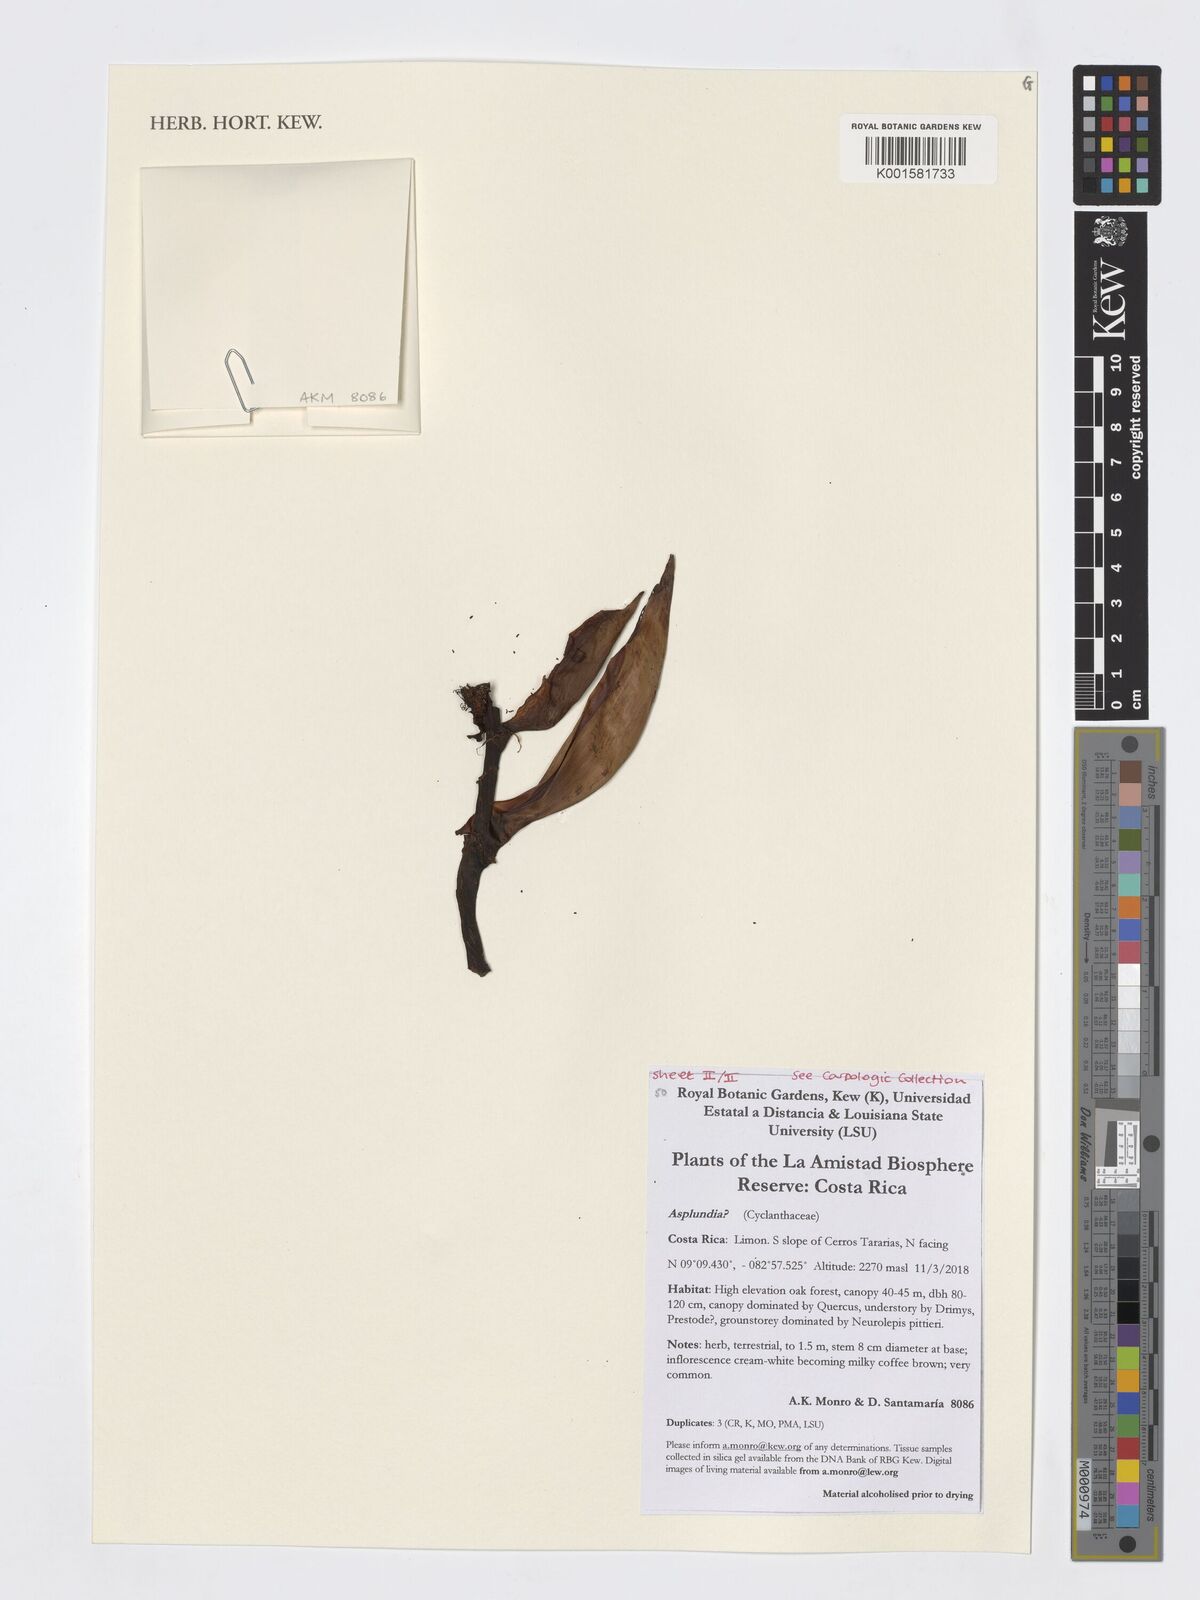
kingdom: Plantae
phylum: Tracheophyta
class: Liliopsida
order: Pandanales
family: Cyclanthaceae
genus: Asplundia
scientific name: Asplundia
